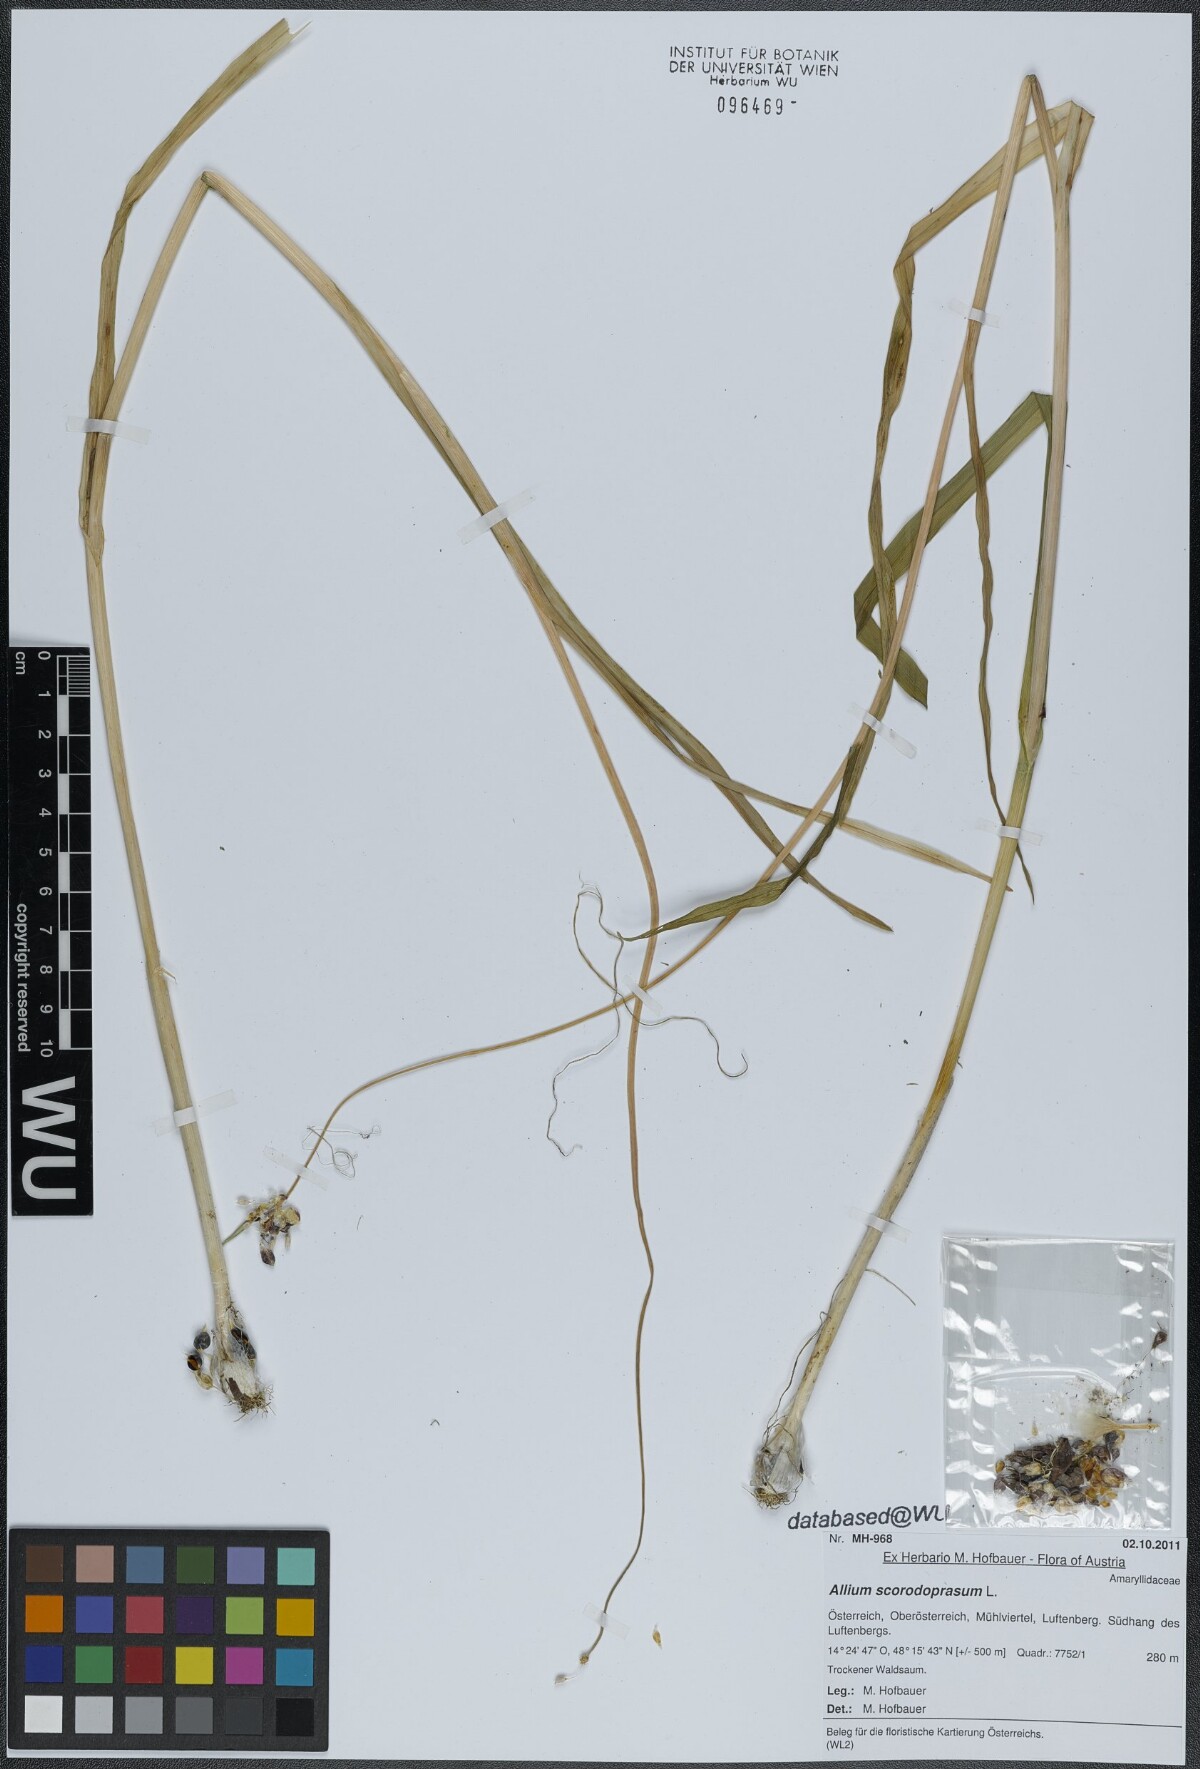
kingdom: Plantae
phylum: Tracheophyta
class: Liliopsida
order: Asparagales
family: Amaryllidaceae
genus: Allium
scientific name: Allium scorodoprasum
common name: Sand leek
